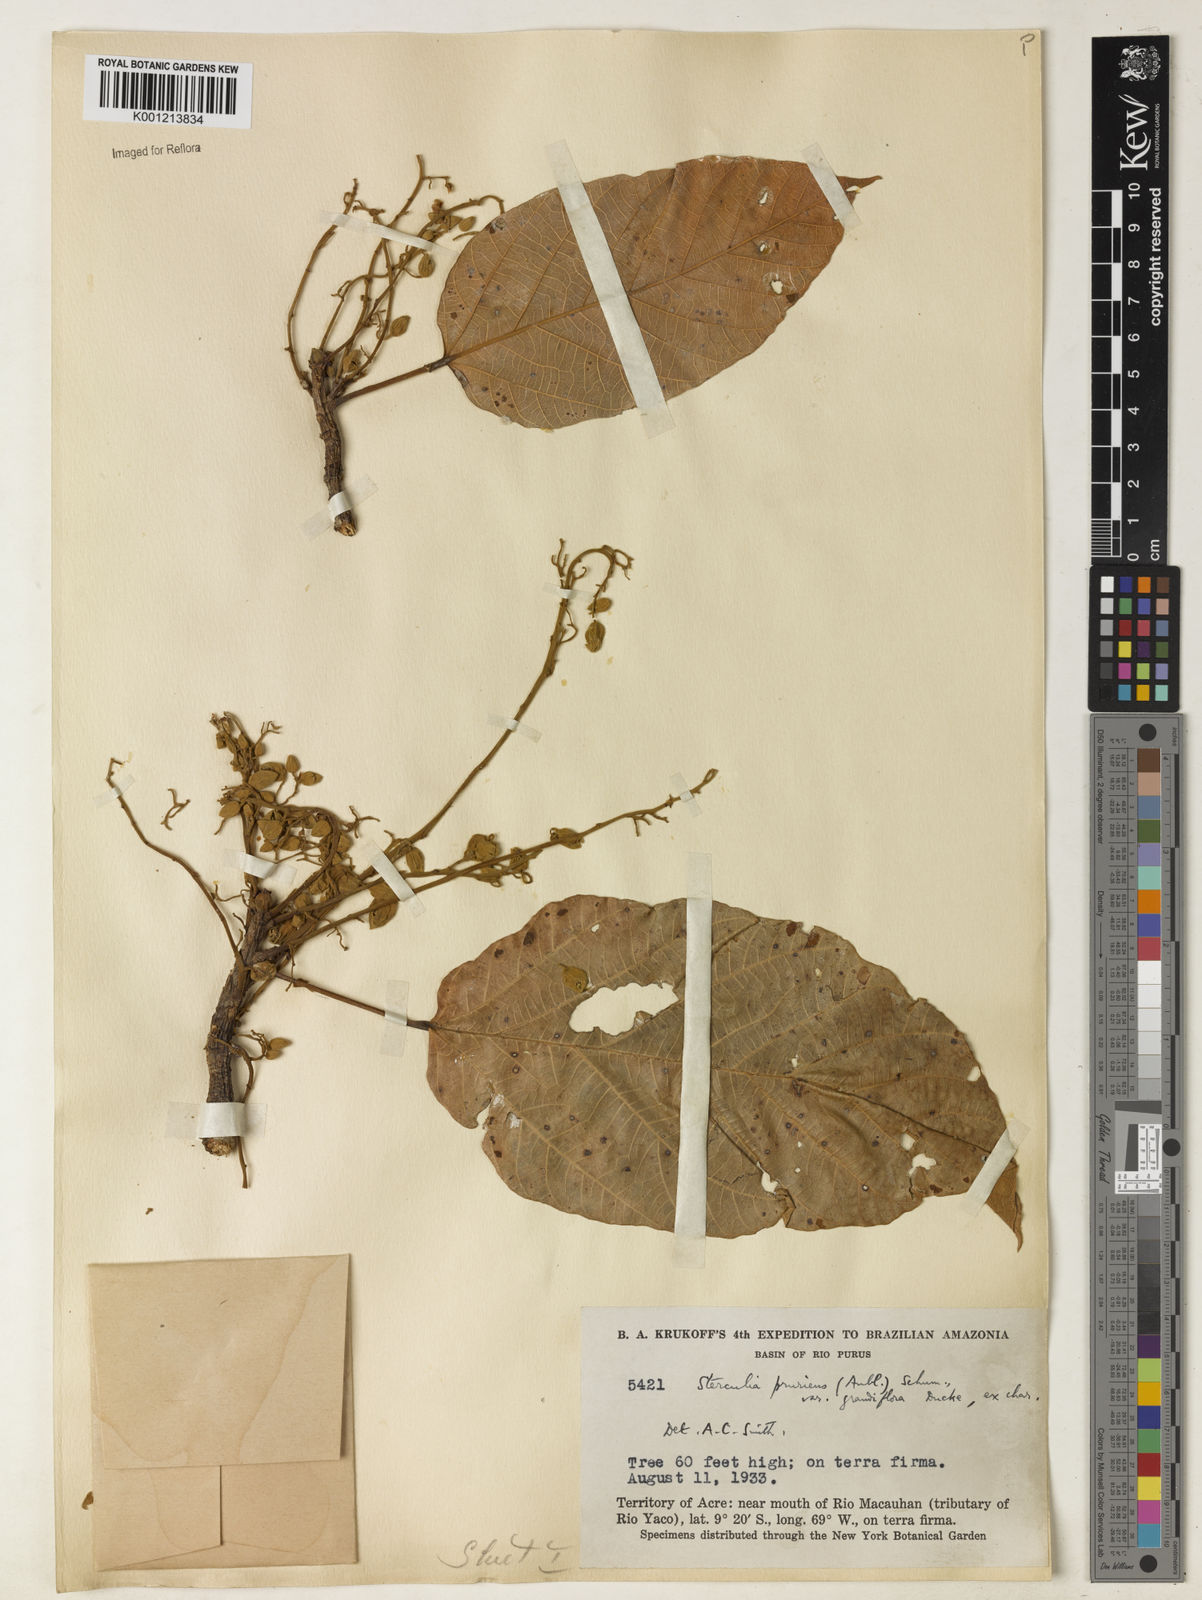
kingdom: Plantae
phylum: Tracheophyta
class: Magnoliopsida
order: Malvales
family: Malvaceae
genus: Sterculia
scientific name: Sterculia pruriens
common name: Grand mahot
